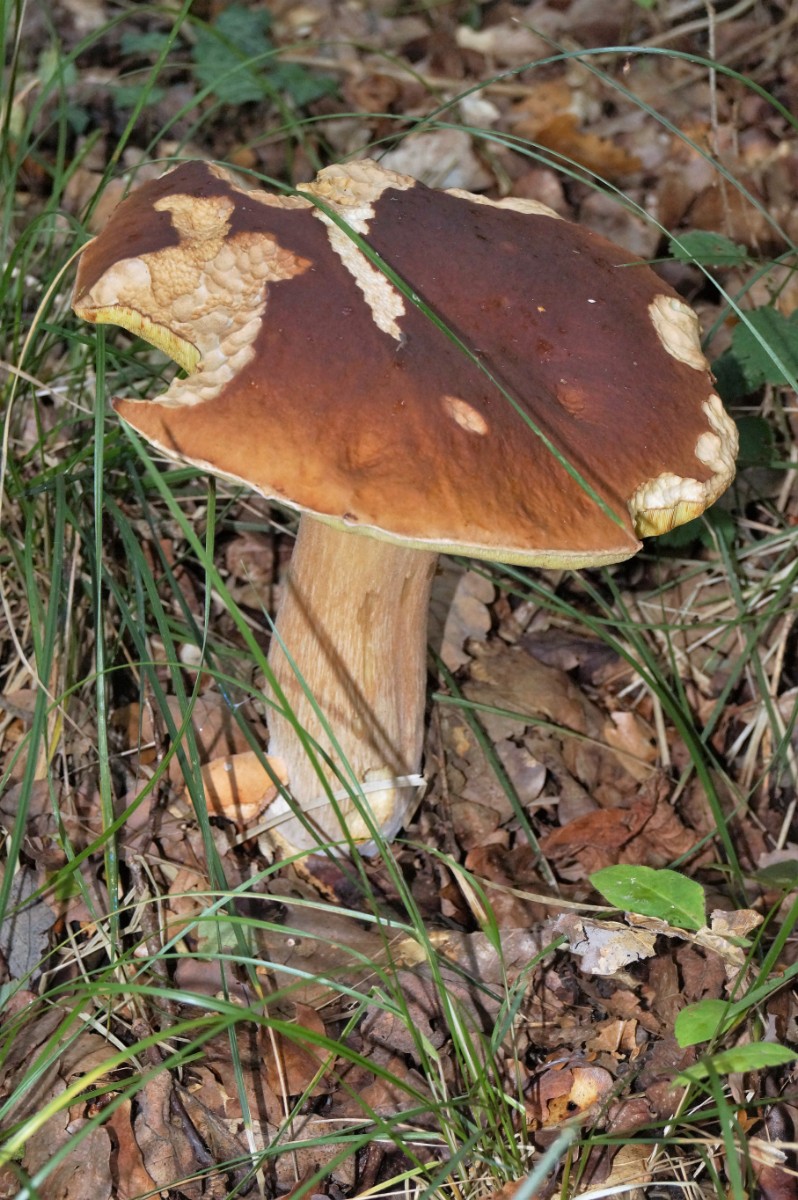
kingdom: Fungi
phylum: Basidiomycota
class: Agaricomycetes
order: Boletales
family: Boletaceae
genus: Boletus
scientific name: Boletus edulis
